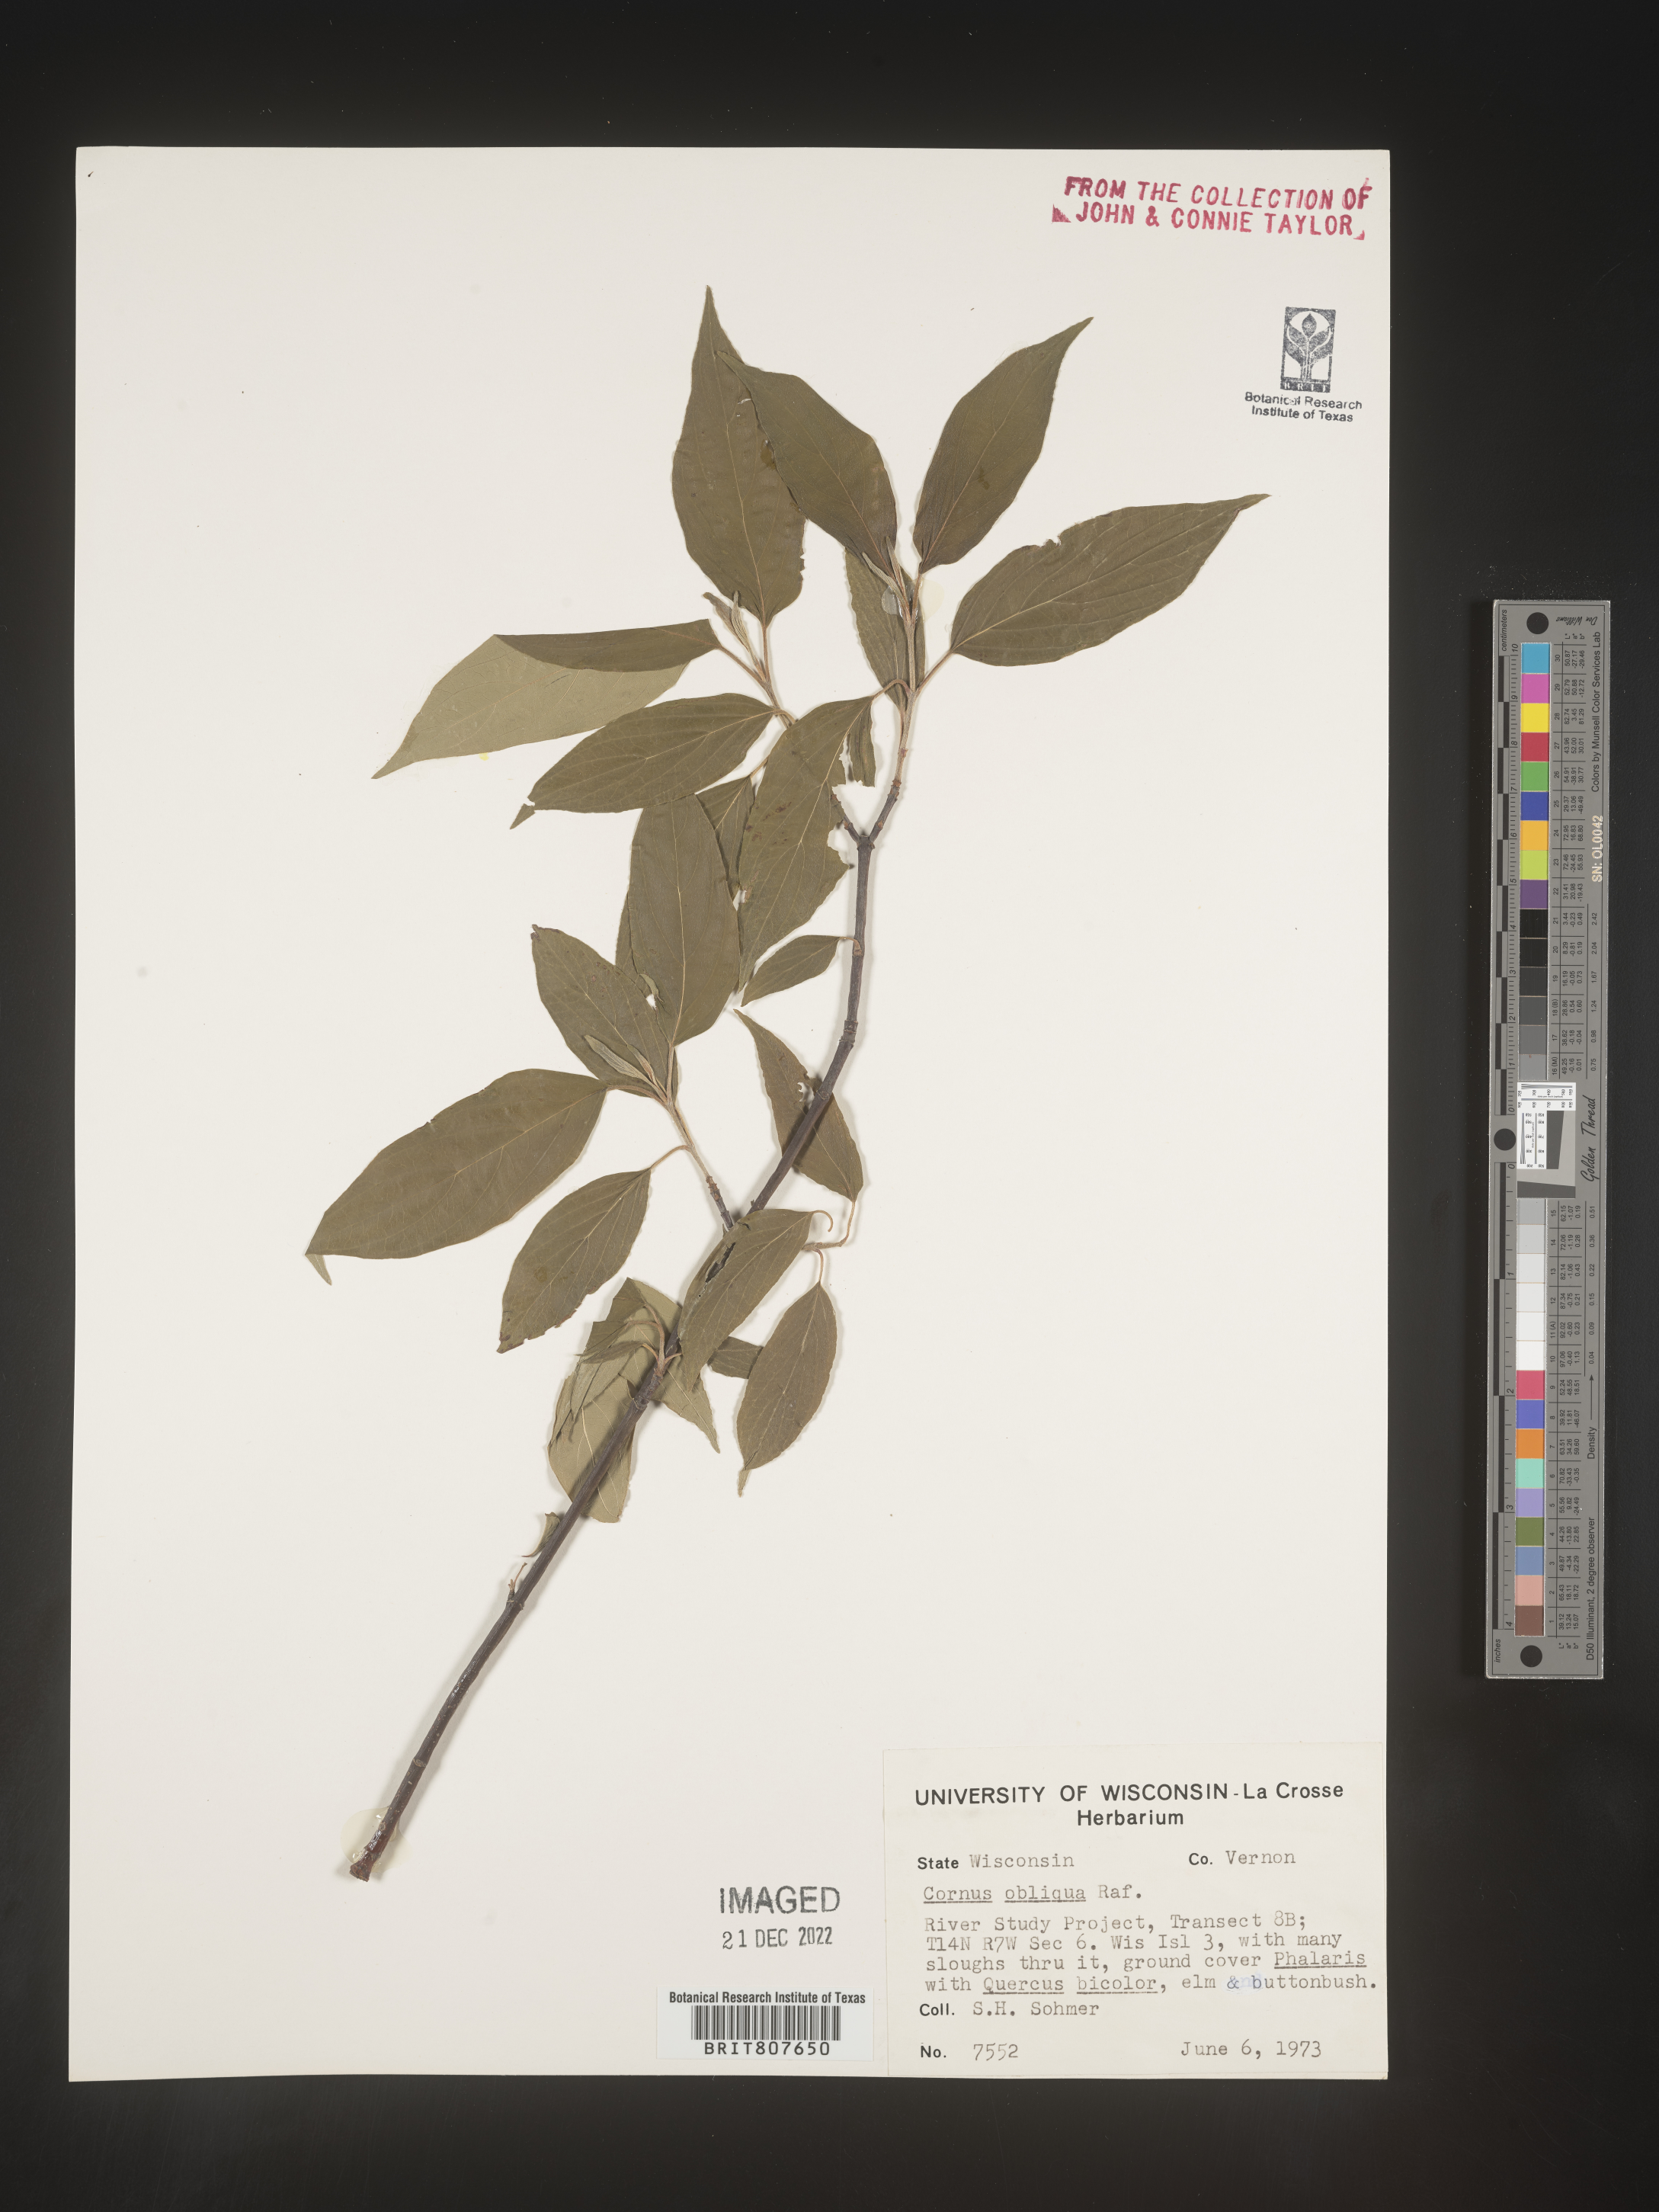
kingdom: Plantae
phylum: Tracheophyta
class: Magnoliopsida
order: Cornales
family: Cornaceae
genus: Cornus
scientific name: Cornus obliqua
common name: Pale dogwood
